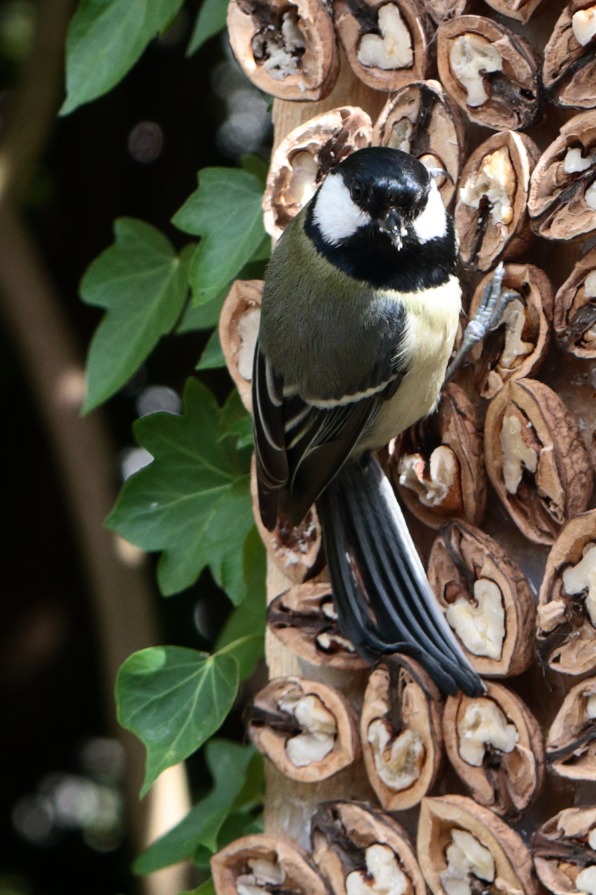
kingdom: Animalia
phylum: Chordata
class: Aves
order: Passeriformes
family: Paridae
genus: Parus
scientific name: Parus major
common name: Musvit
